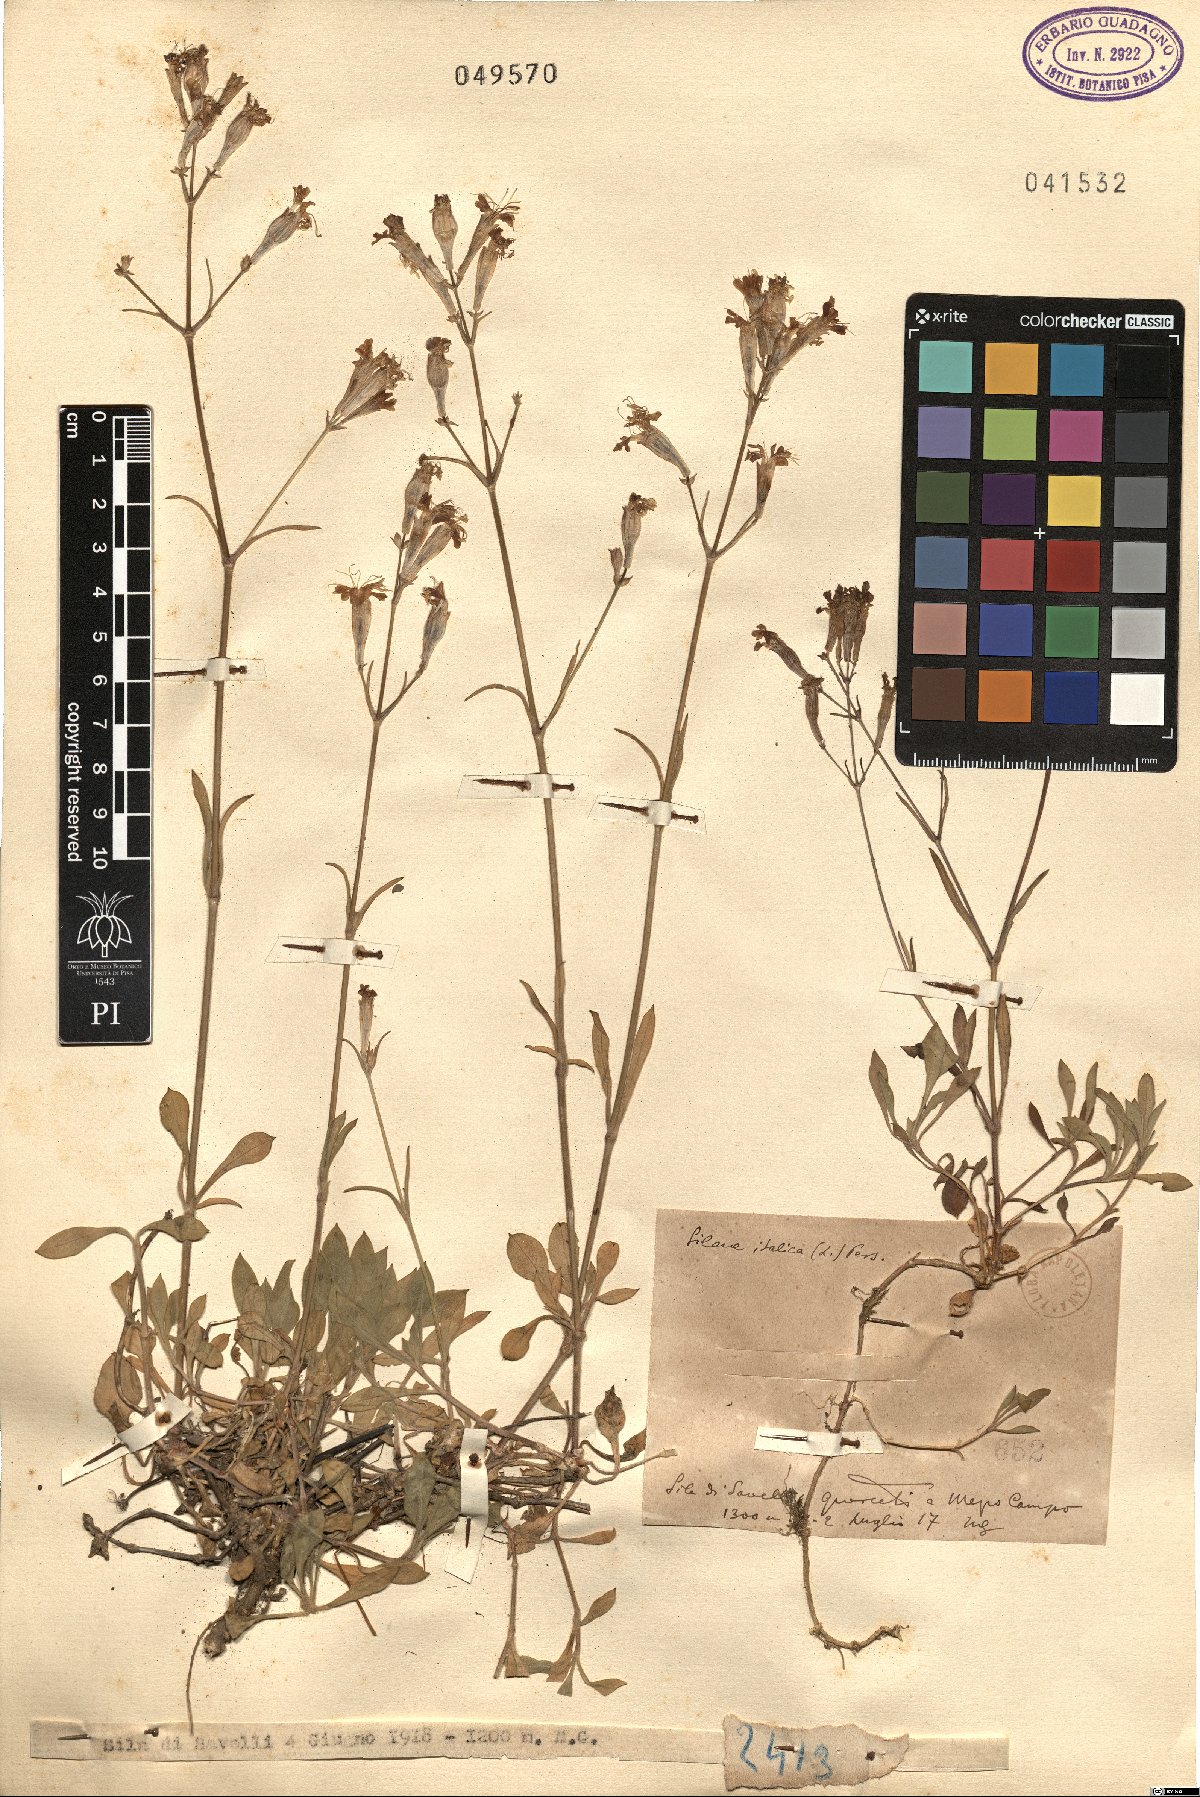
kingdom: Plantae
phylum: Tracheophyta
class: Magnoliopsida
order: Caryophyllales
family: Caryophyllaceae
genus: Silene
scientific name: Silene
